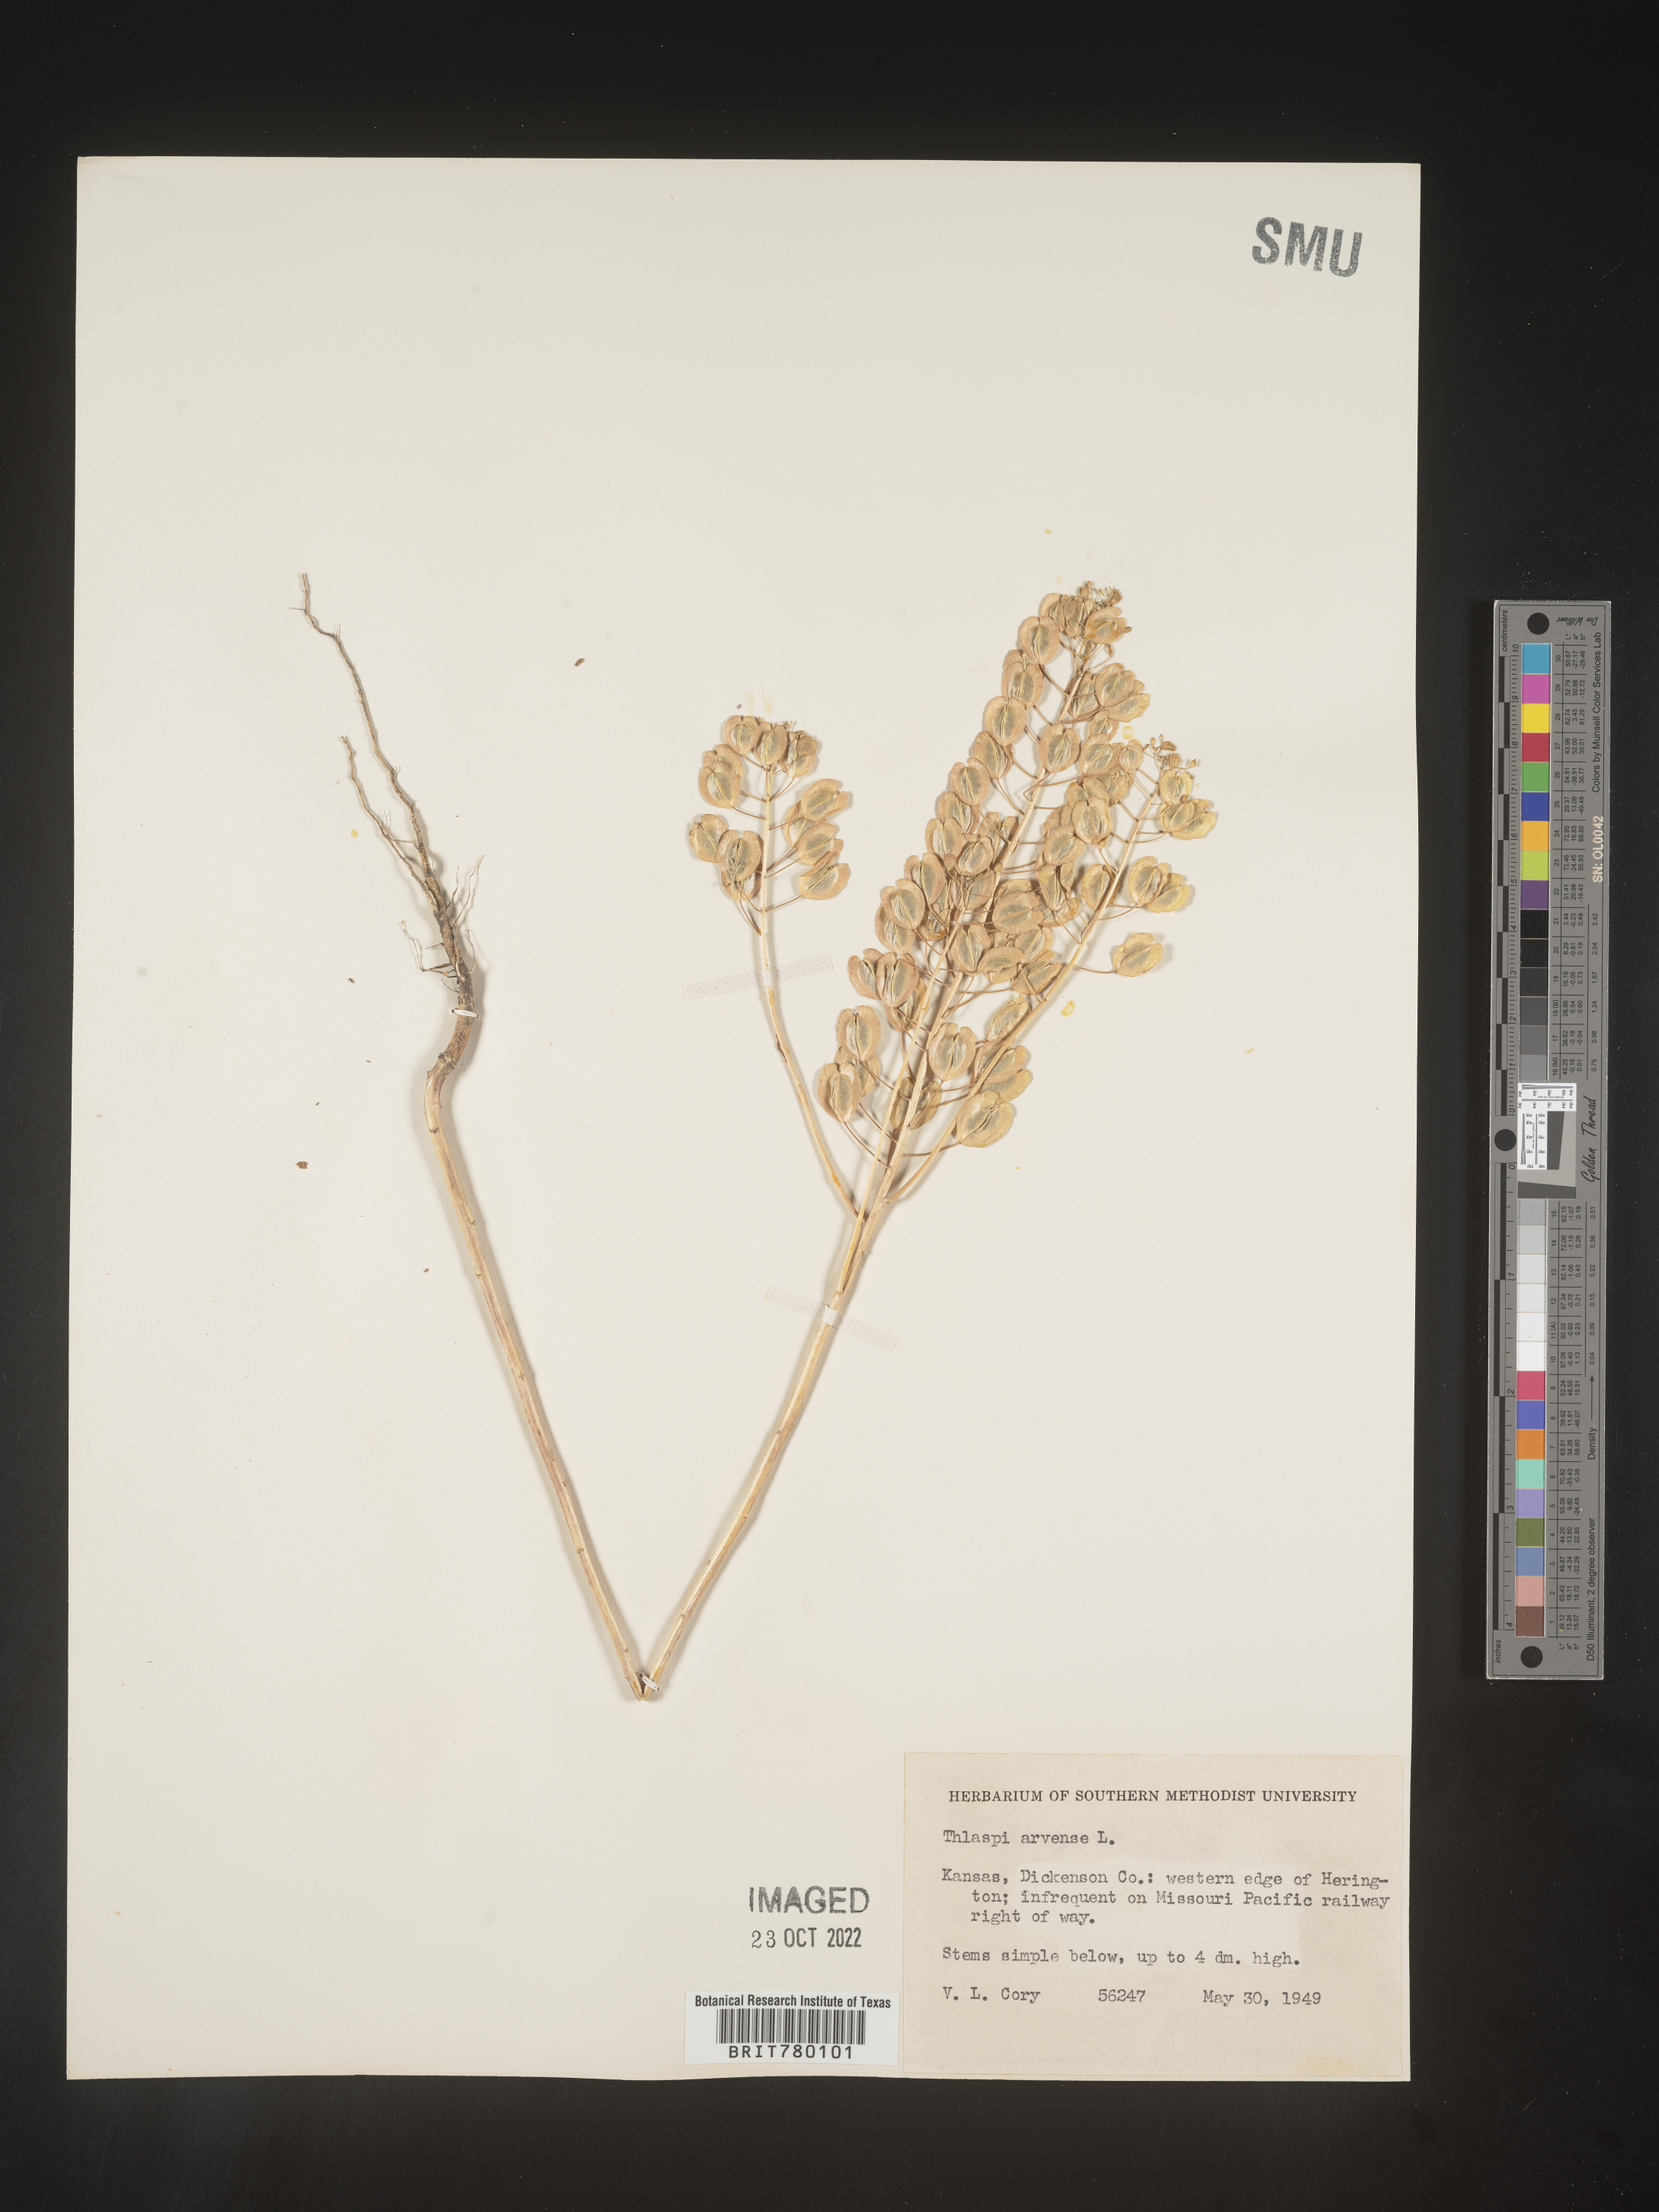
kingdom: Plantae
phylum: Tracheophyta
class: Magnoliopsida
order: Brassicales
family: Brassicaceae
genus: Thlaspi
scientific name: Thlaspi arvense
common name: Field pennycress
